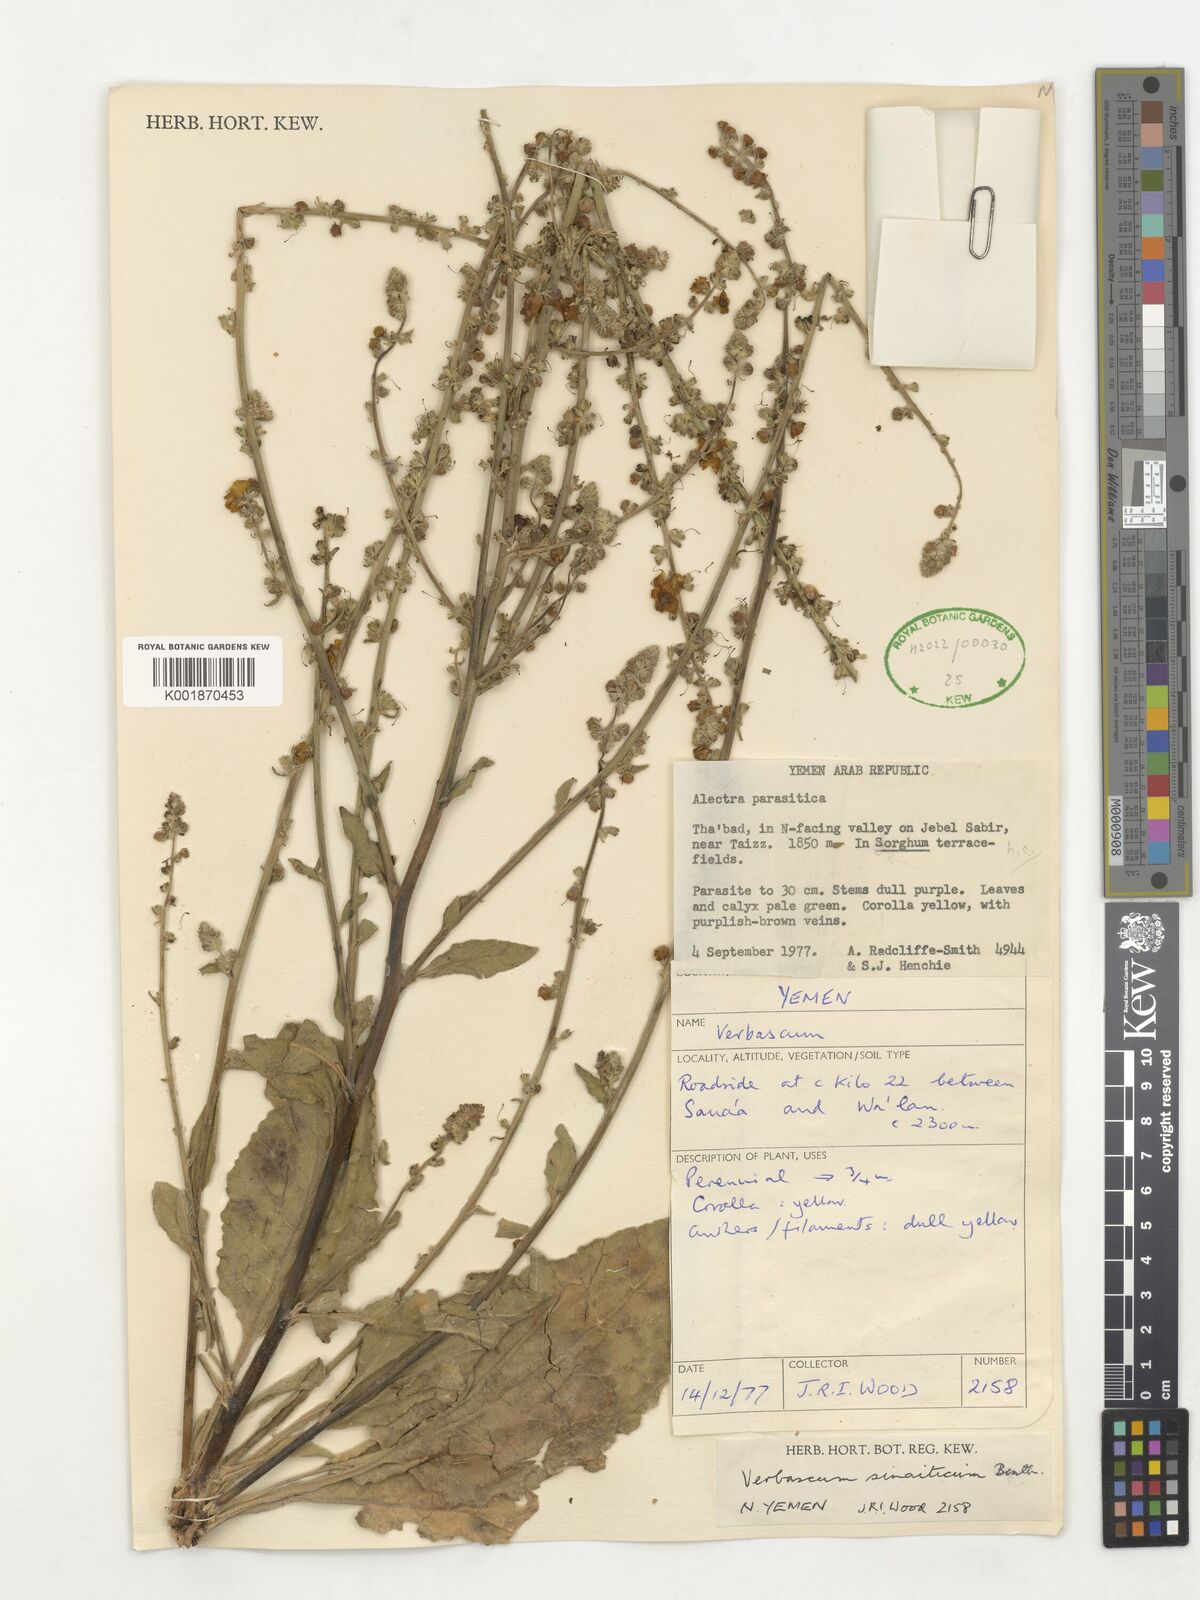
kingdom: Plantae
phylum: Tracheophyta
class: Magnoliopsida
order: Lamiales
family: Scrophulariaceae
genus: Verbascum
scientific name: Verbascum sinaiticum
